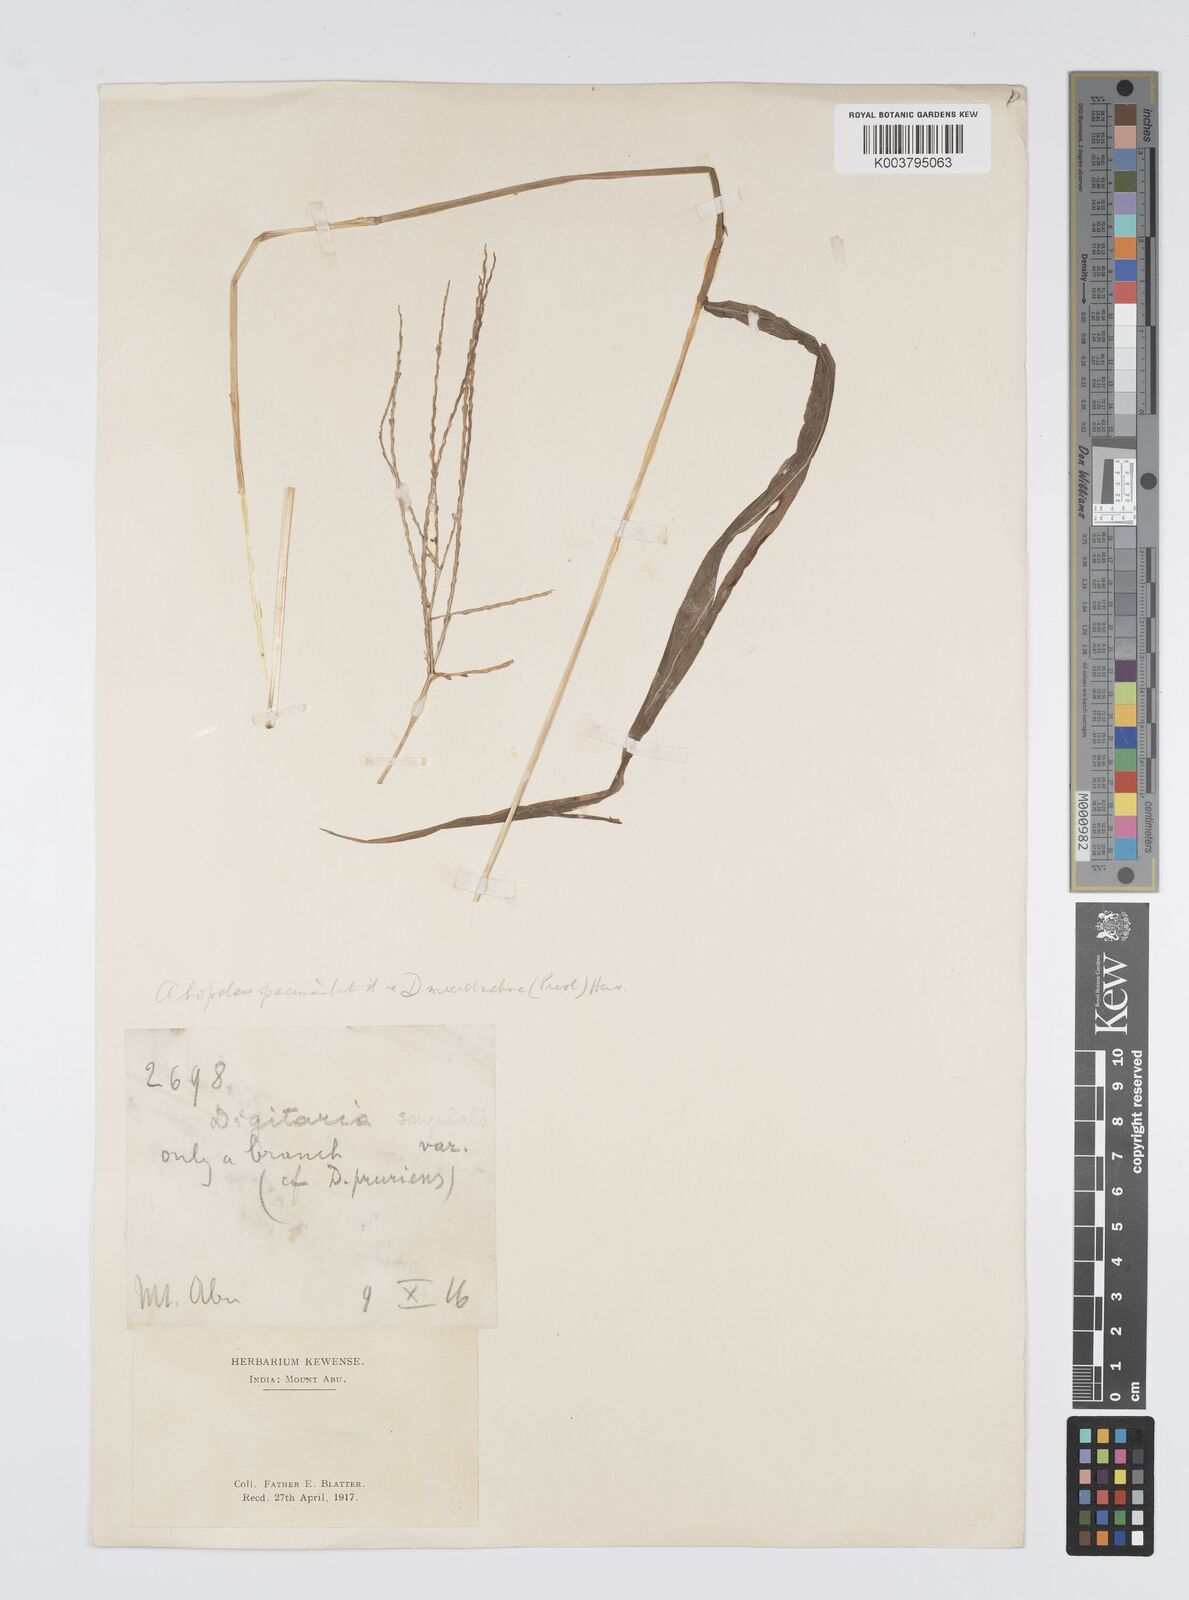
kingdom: Plantae
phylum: Tracheophyta
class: Liliopsida
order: Poales
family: Poaceae
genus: Digitaria
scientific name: Digitaria setigera
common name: East indian crabgrass
